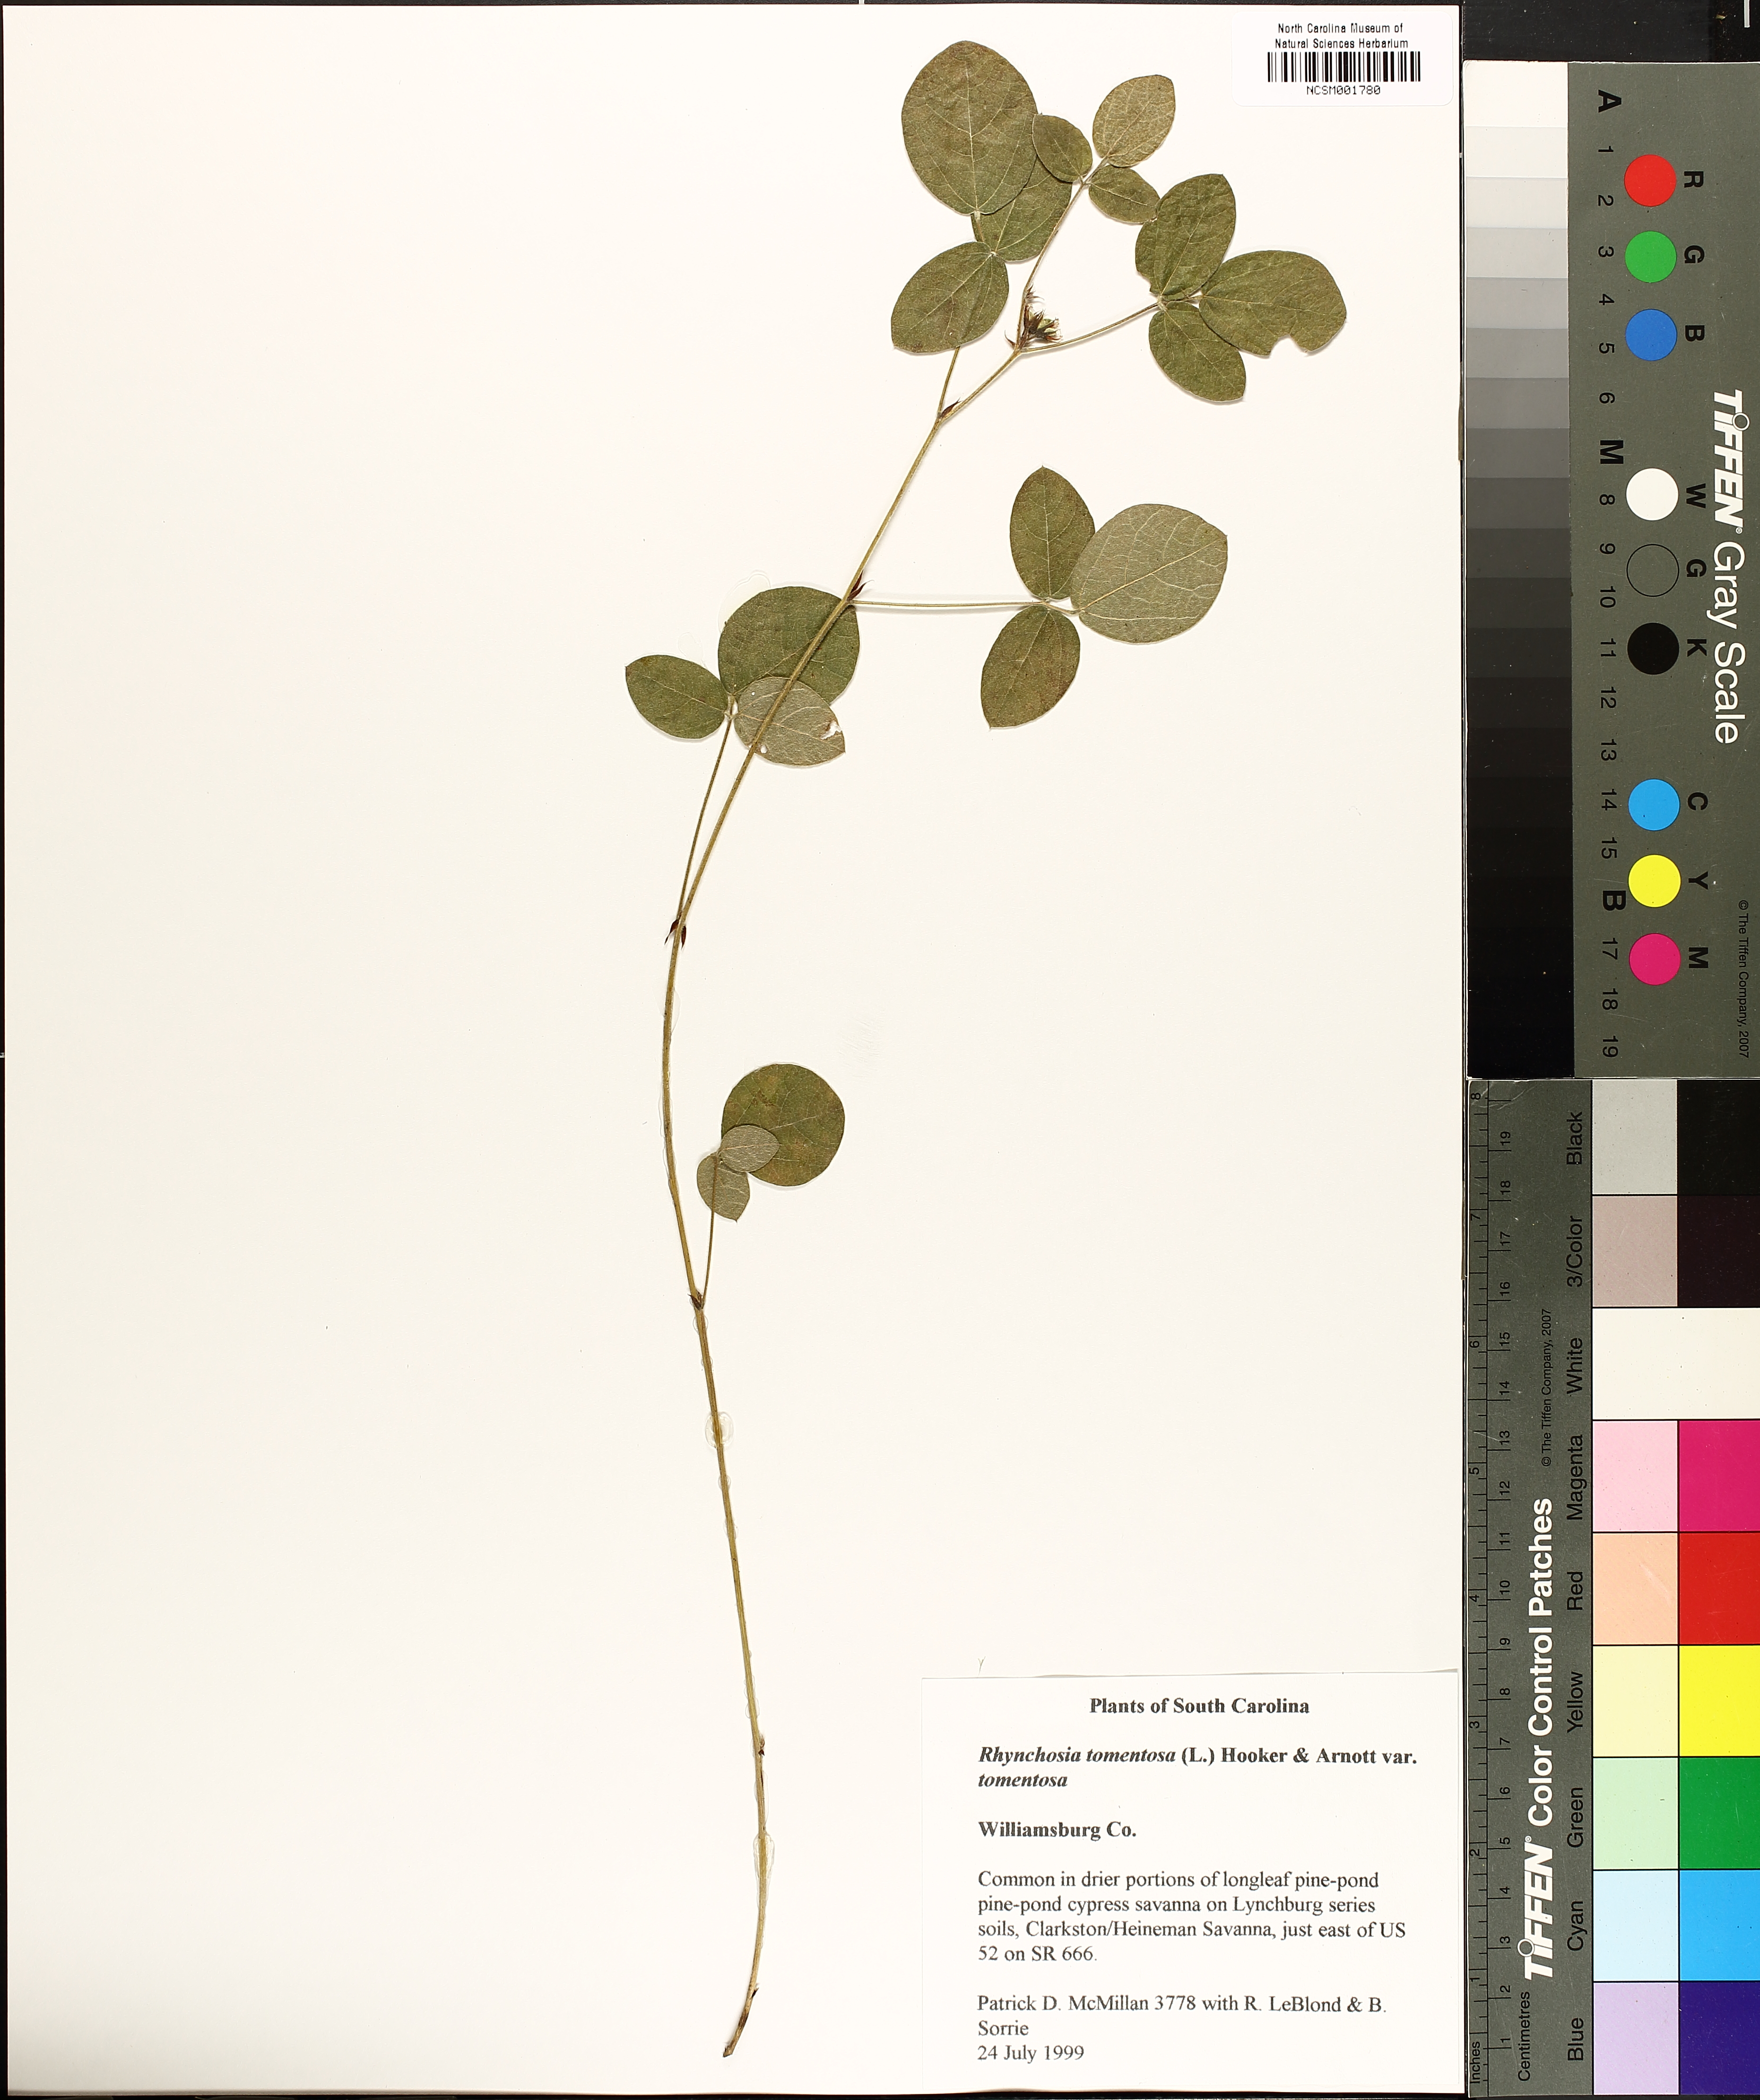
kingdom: Plantae
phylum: Tracheophyta
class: Magnoliopsida
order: Fabales
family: Fabaceae
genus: Rhynchosia
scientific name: Rhynchosia tomentosa
